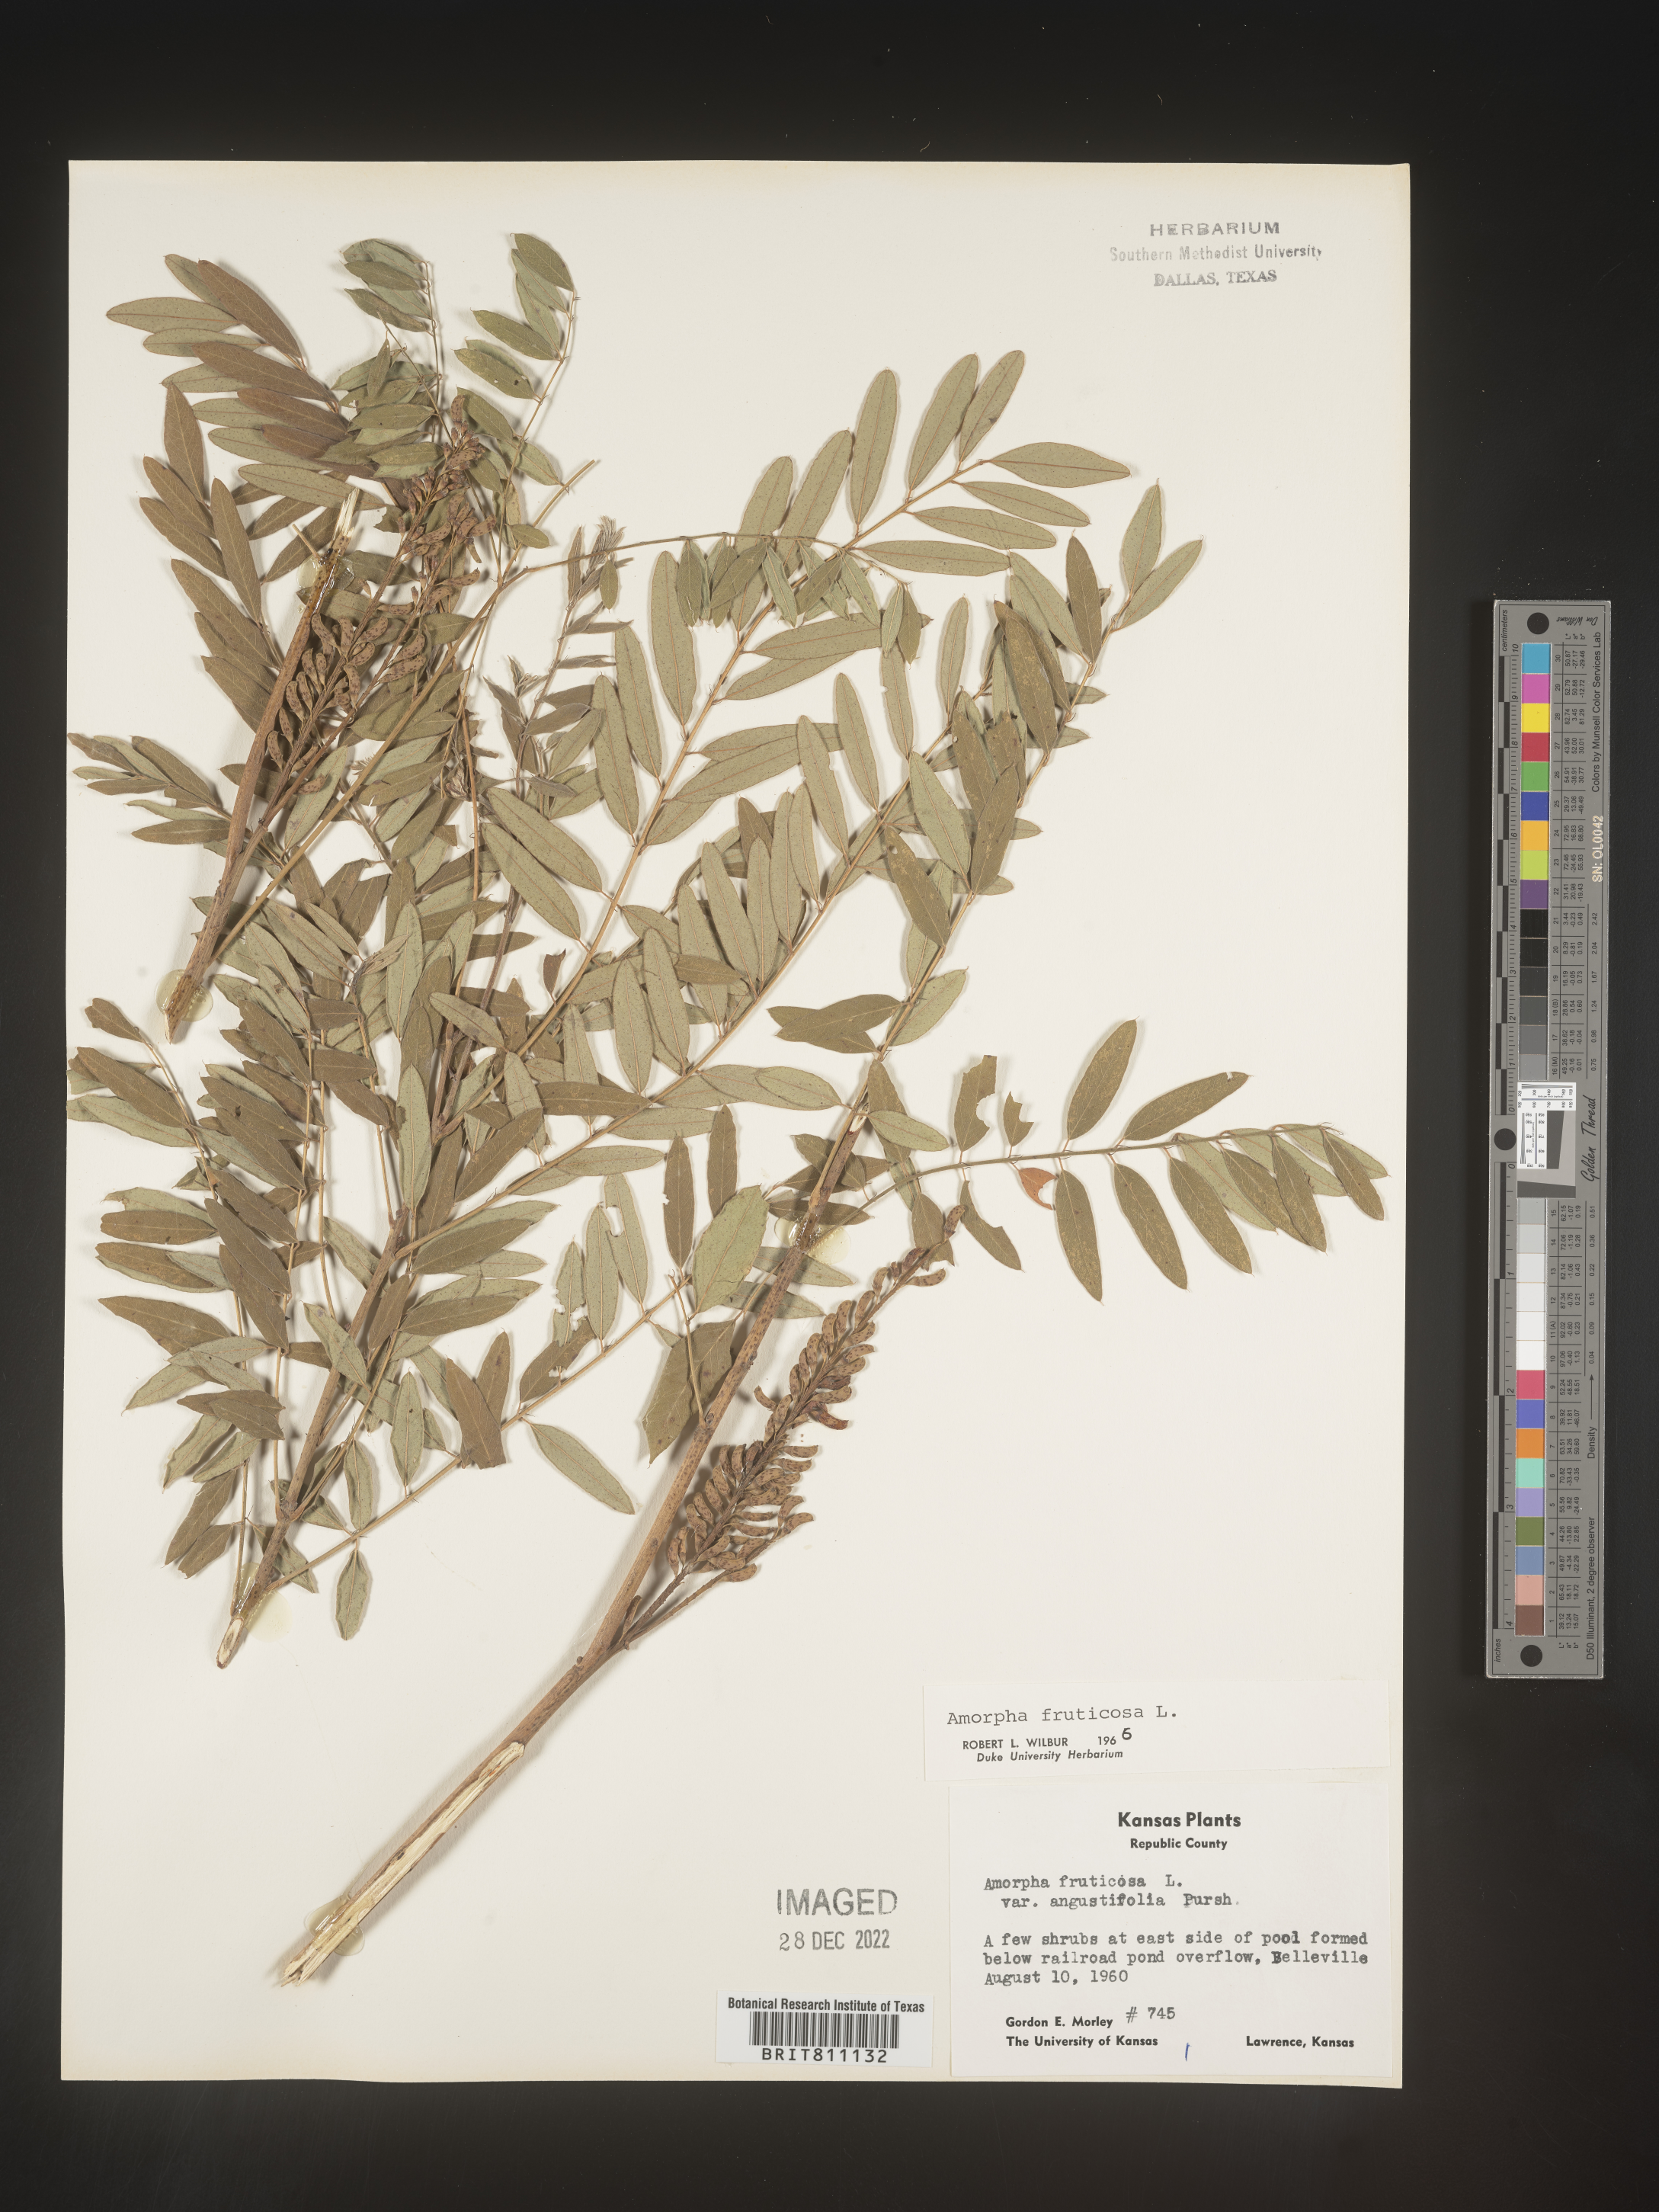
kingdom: Plantae
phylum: Tracheophyta
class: Magnoliopsida
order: Fabales
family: Fabaceae
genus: Amorpha
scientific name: Amorpha fruticosa
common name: False indigo
